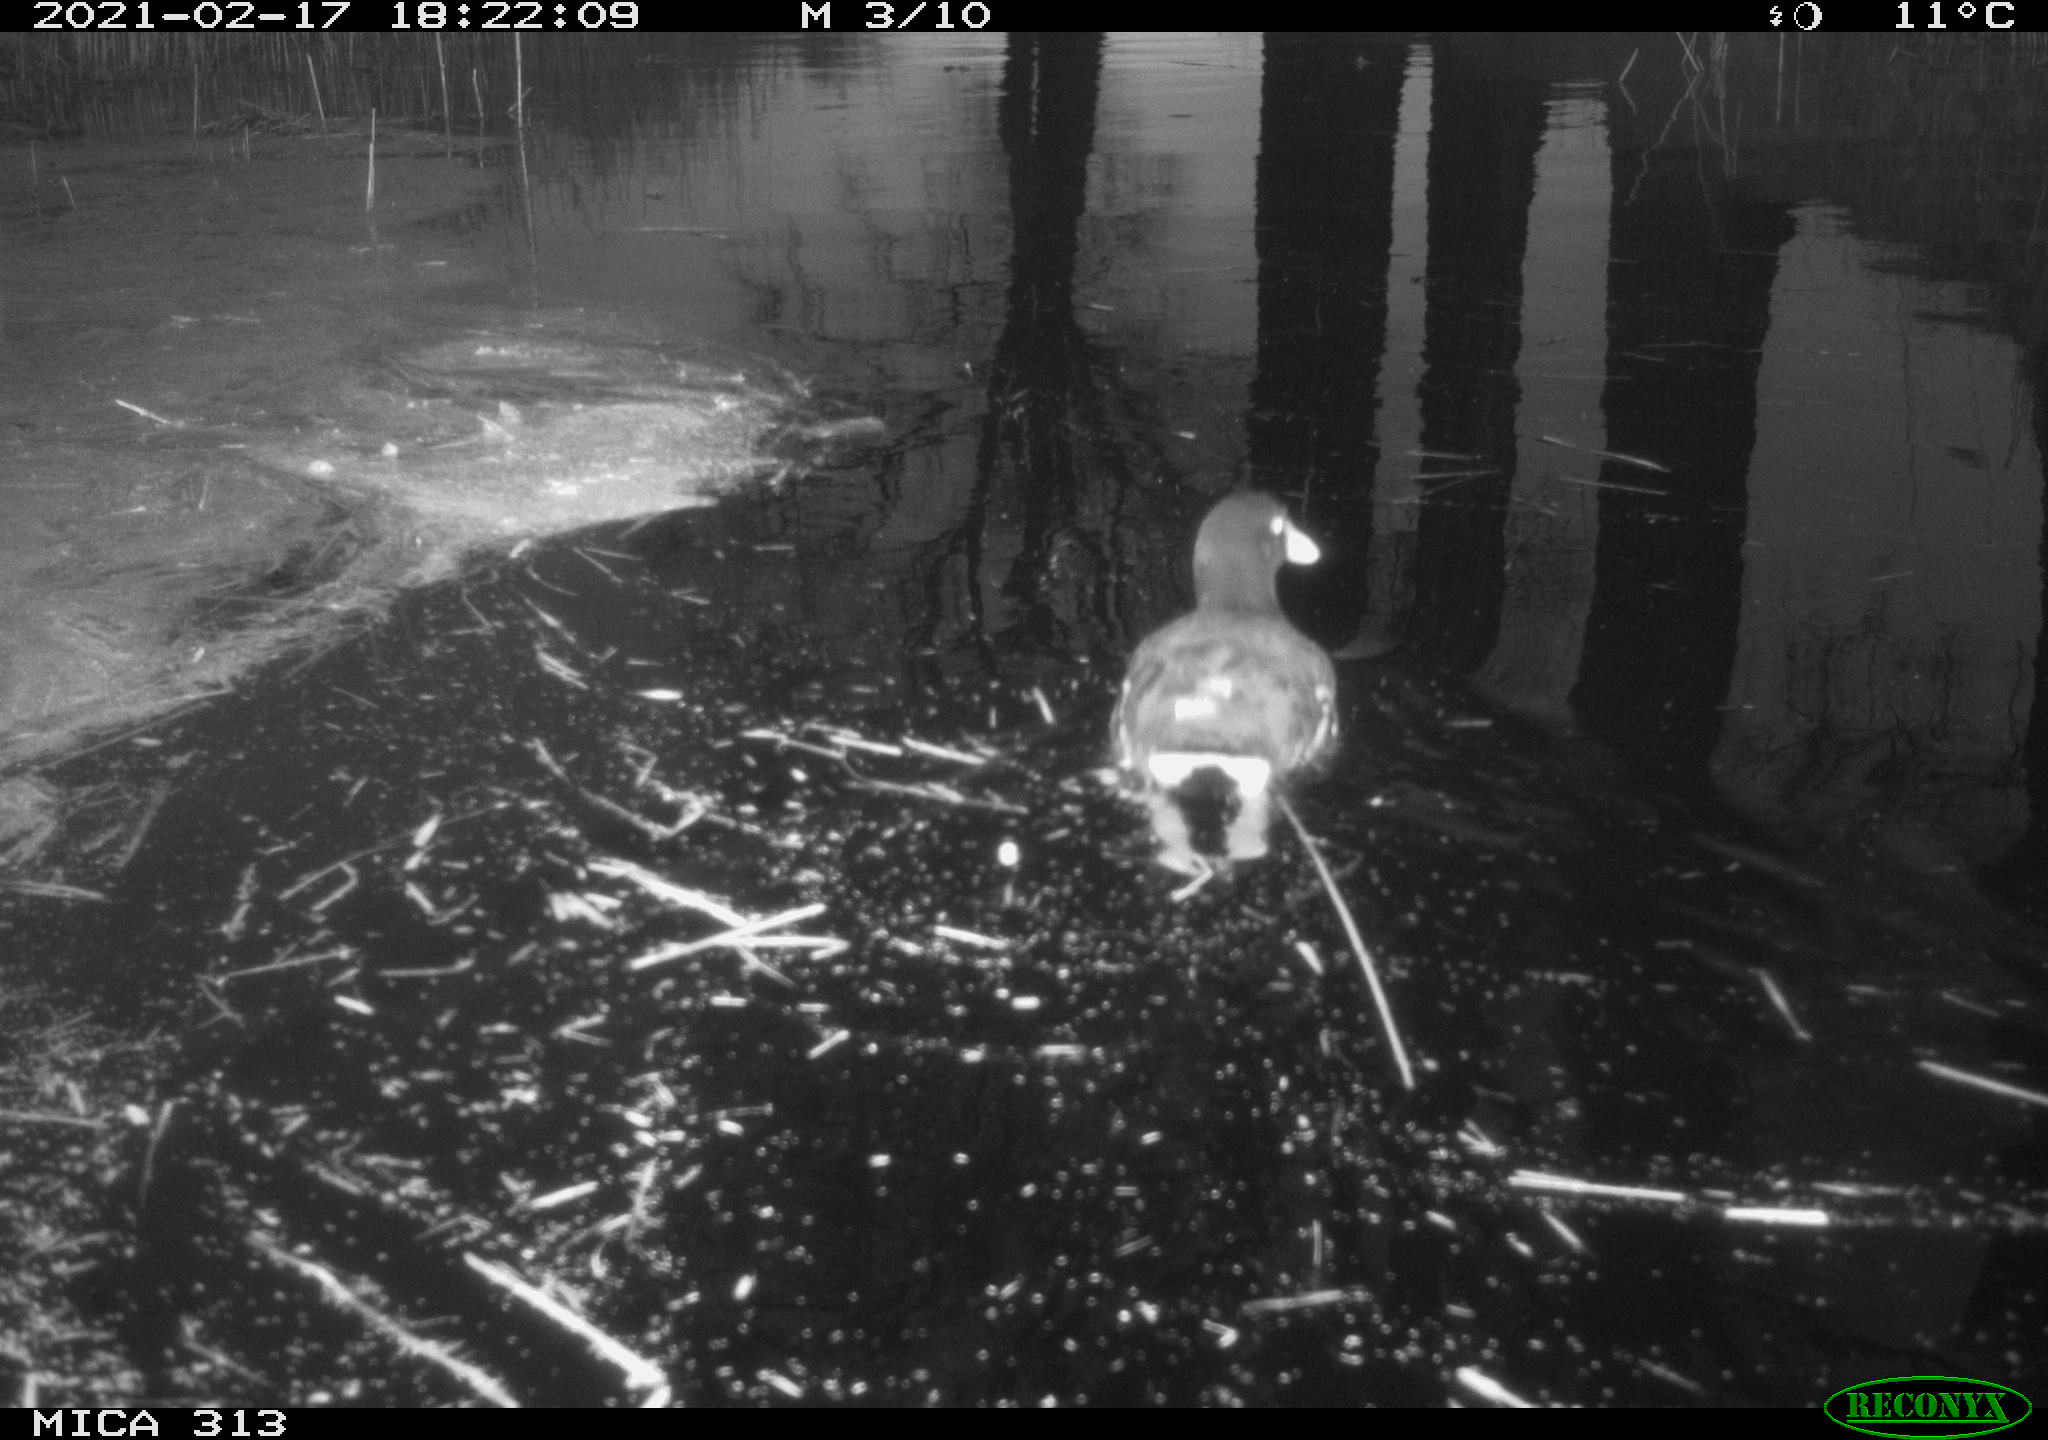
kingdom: Animalia
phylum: Chordata
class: Aves
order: Gruiformes
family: Rallidae
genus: Gallinula
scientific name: Gallinula chloropus
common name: Common moorhen
